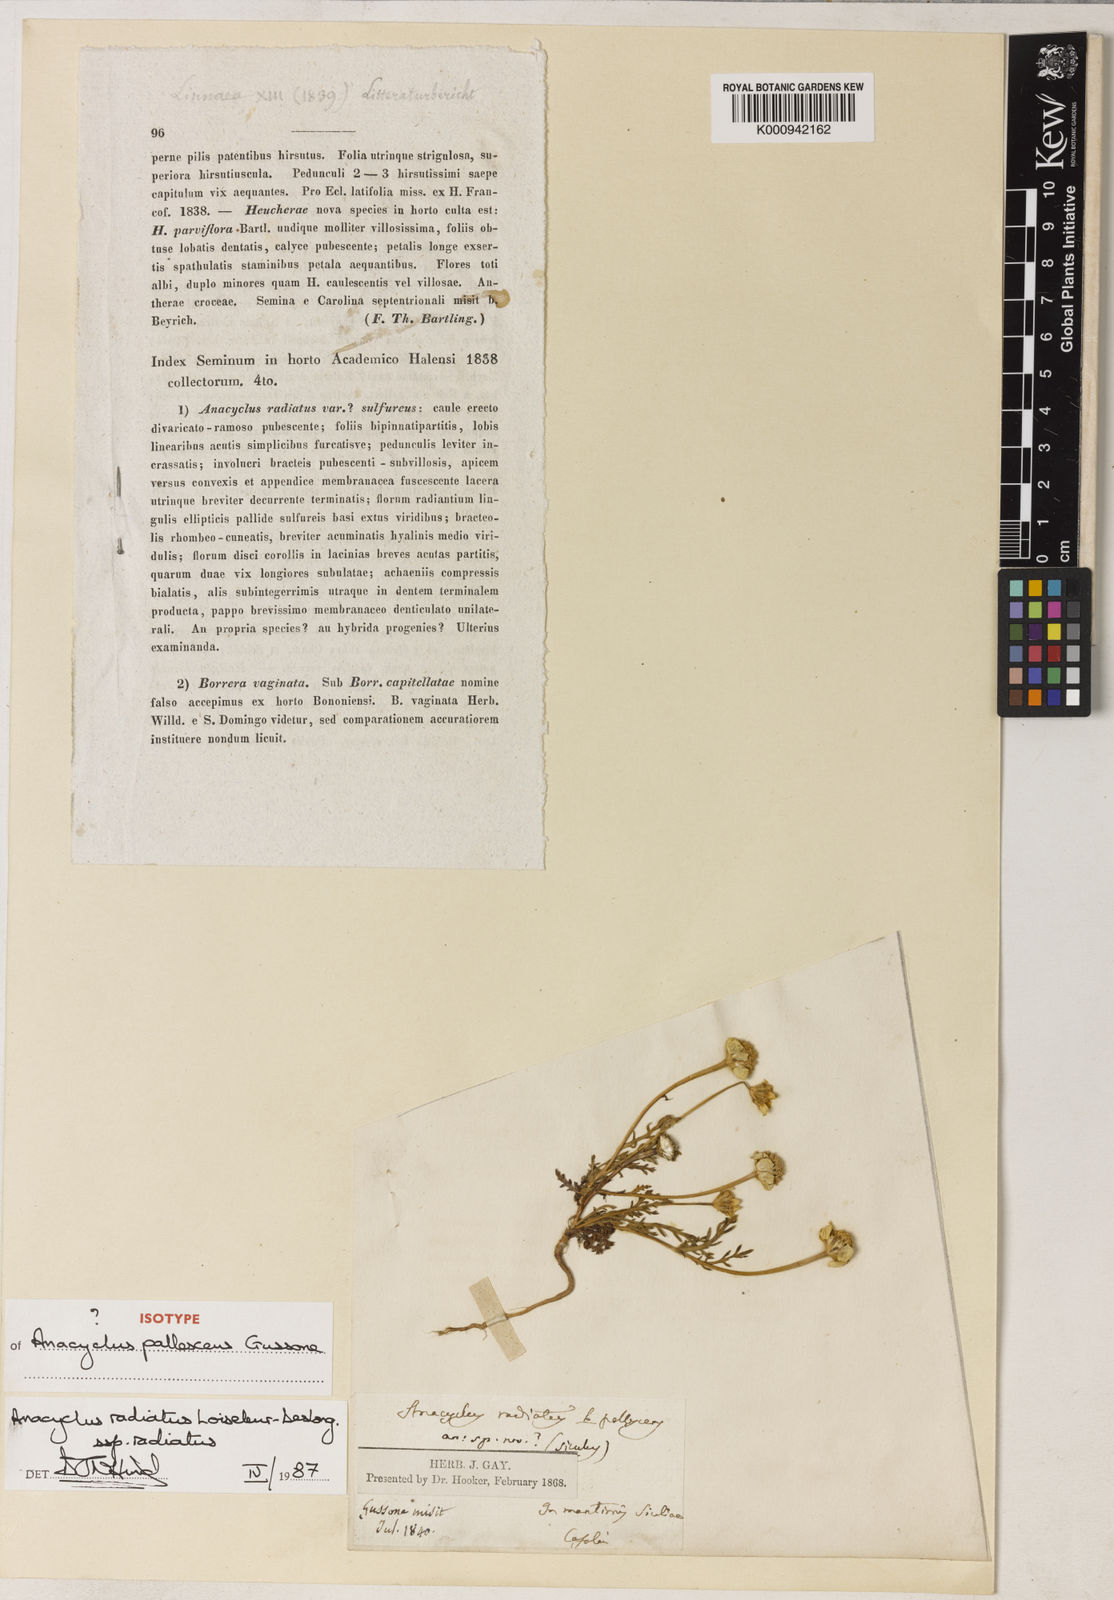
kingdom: Plantae
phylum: Tracheophyta
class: Magnoliopsida
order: Asterales
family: Asteraceae
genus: Anacyclus
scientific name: Anacyclus radiatus
